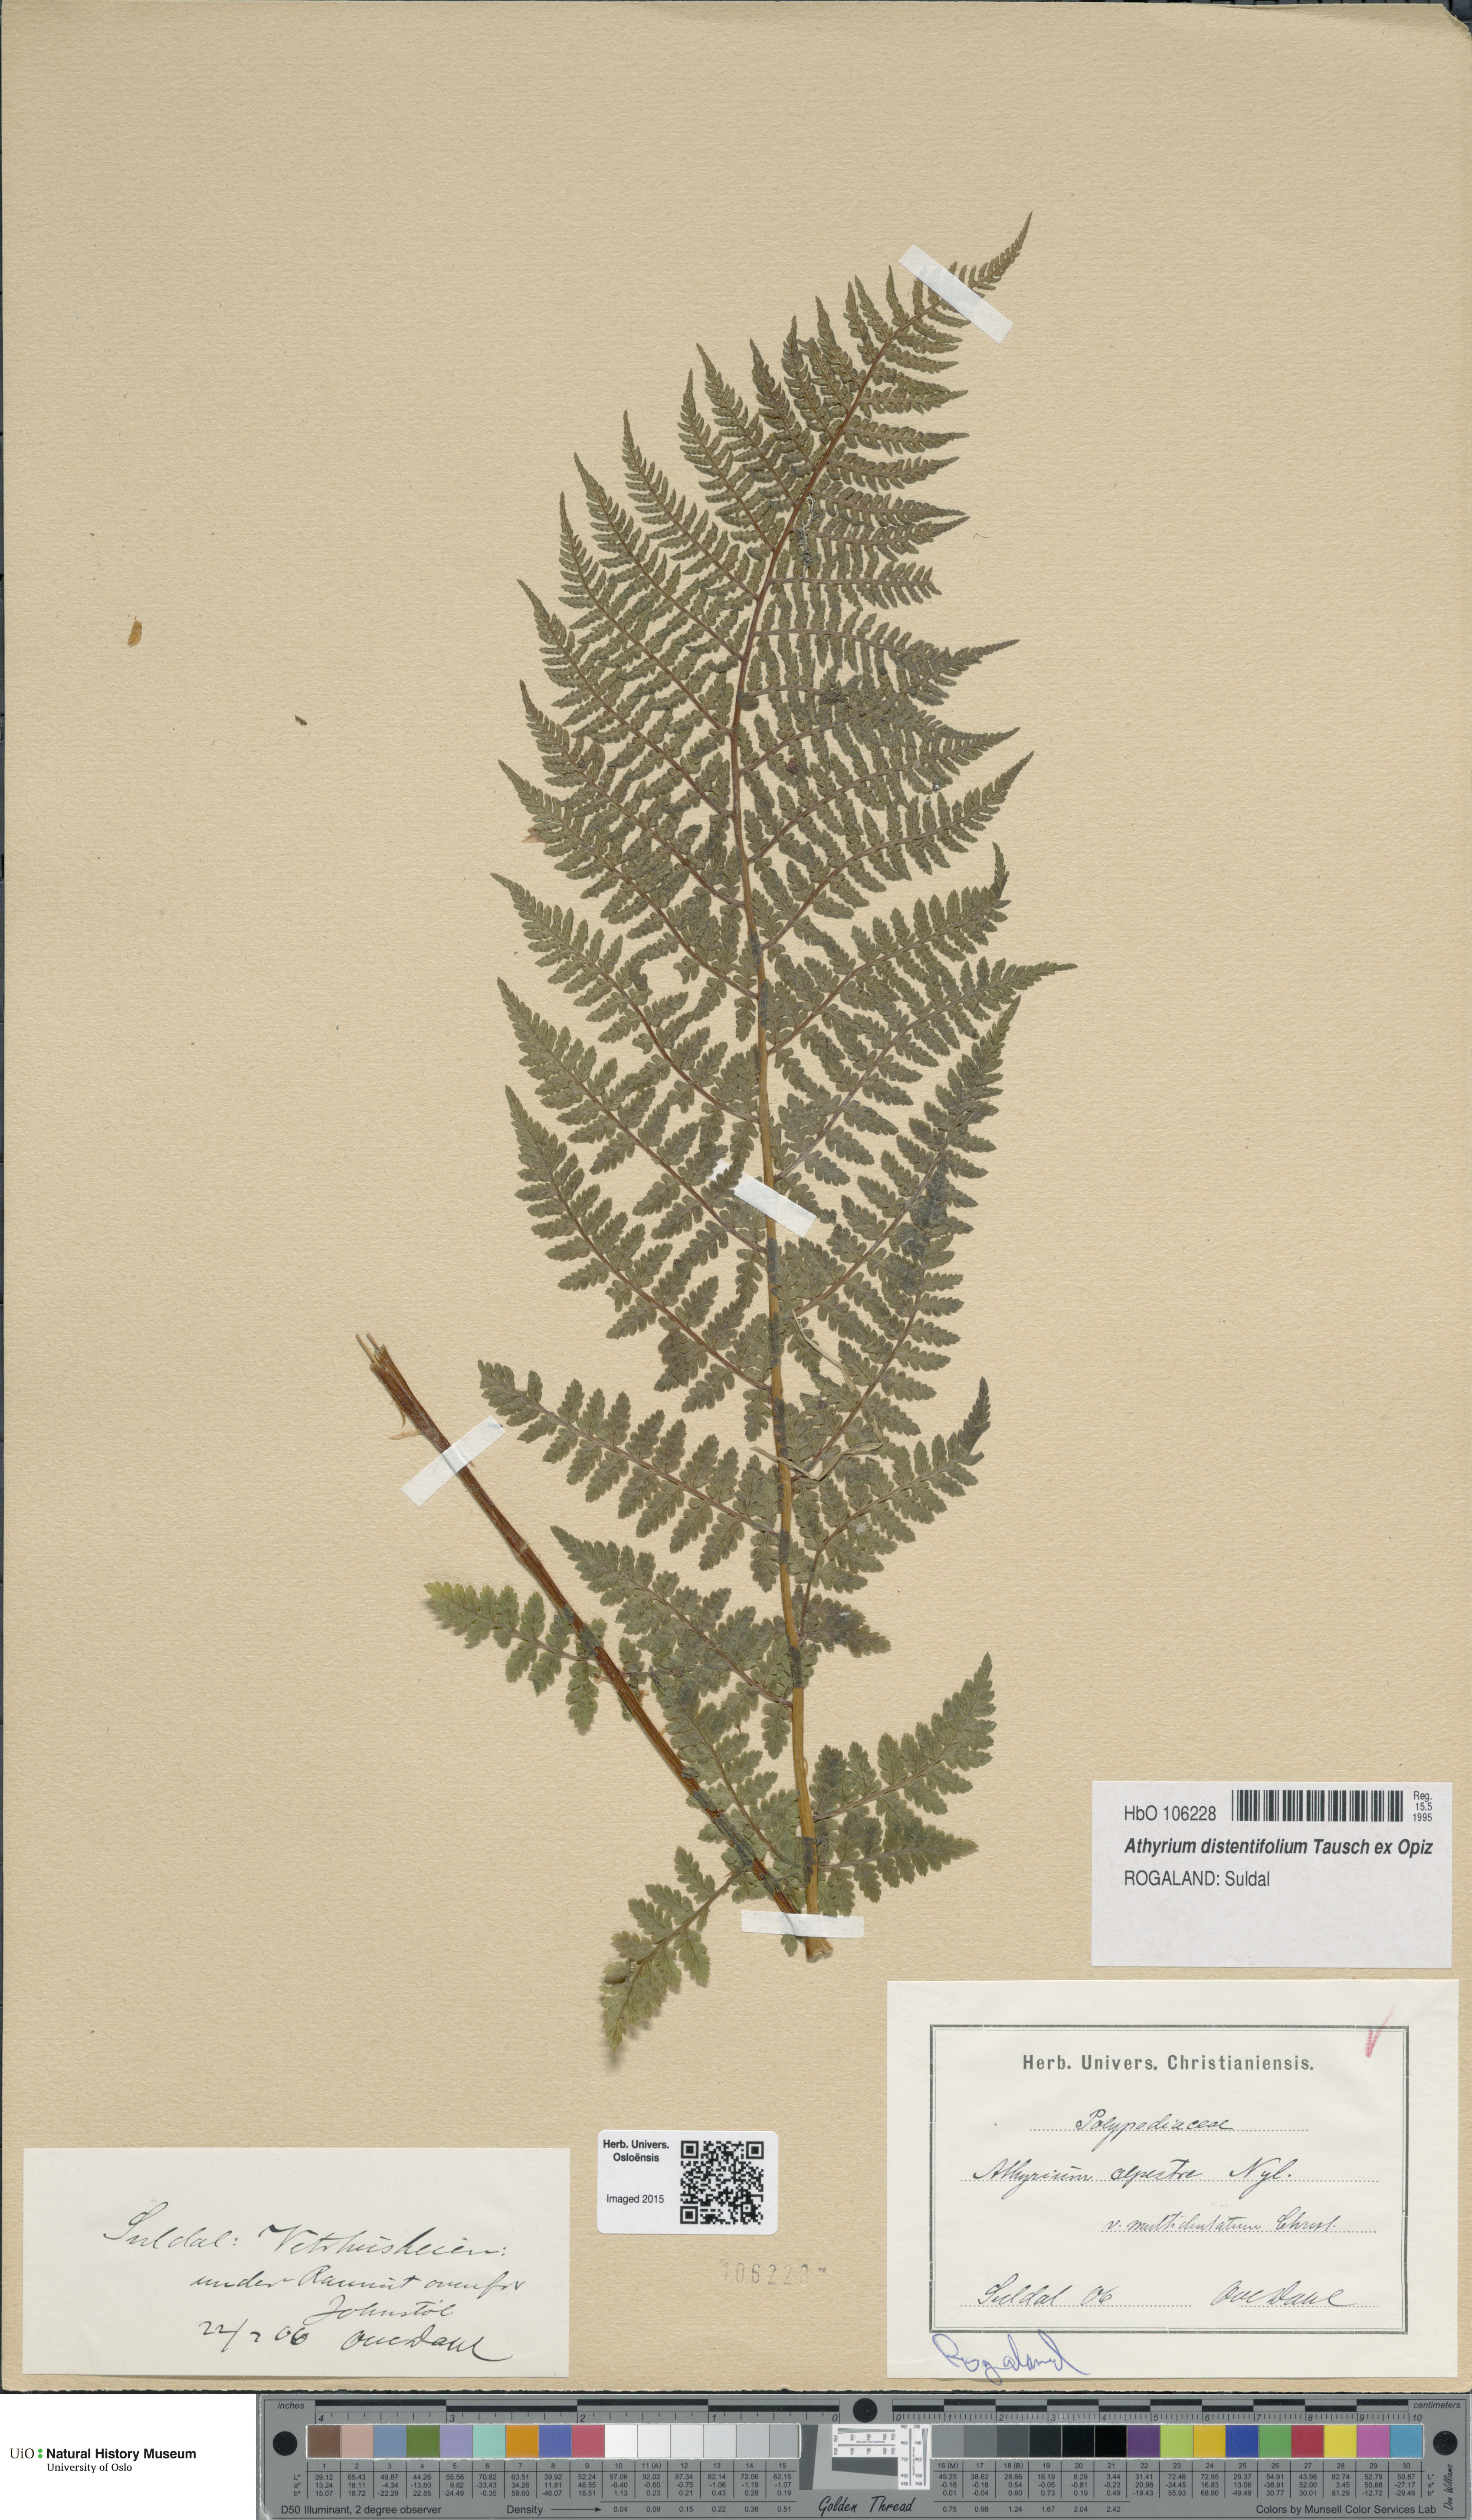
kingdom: Plantae
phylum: Tracheophyta
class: Polypodiopsida
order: Polypodiales
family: Athyriaceae
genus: Pseudathyrium
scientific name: Pseudathyrium alpestre
